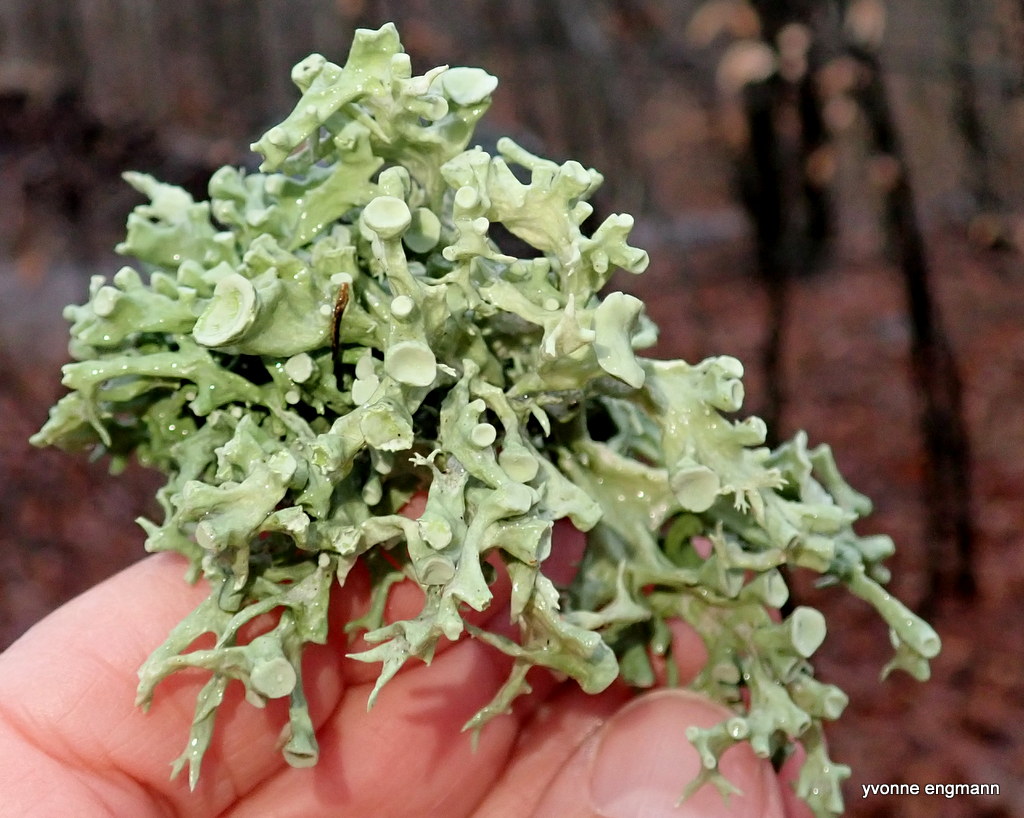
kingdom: Fungi
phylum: Ascomycota
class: Lecanoromycetes
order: Lecanorales
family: Ramalinaceae
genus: Ramalina
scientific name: Ramalina fastigiata
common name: tue-grenlav
